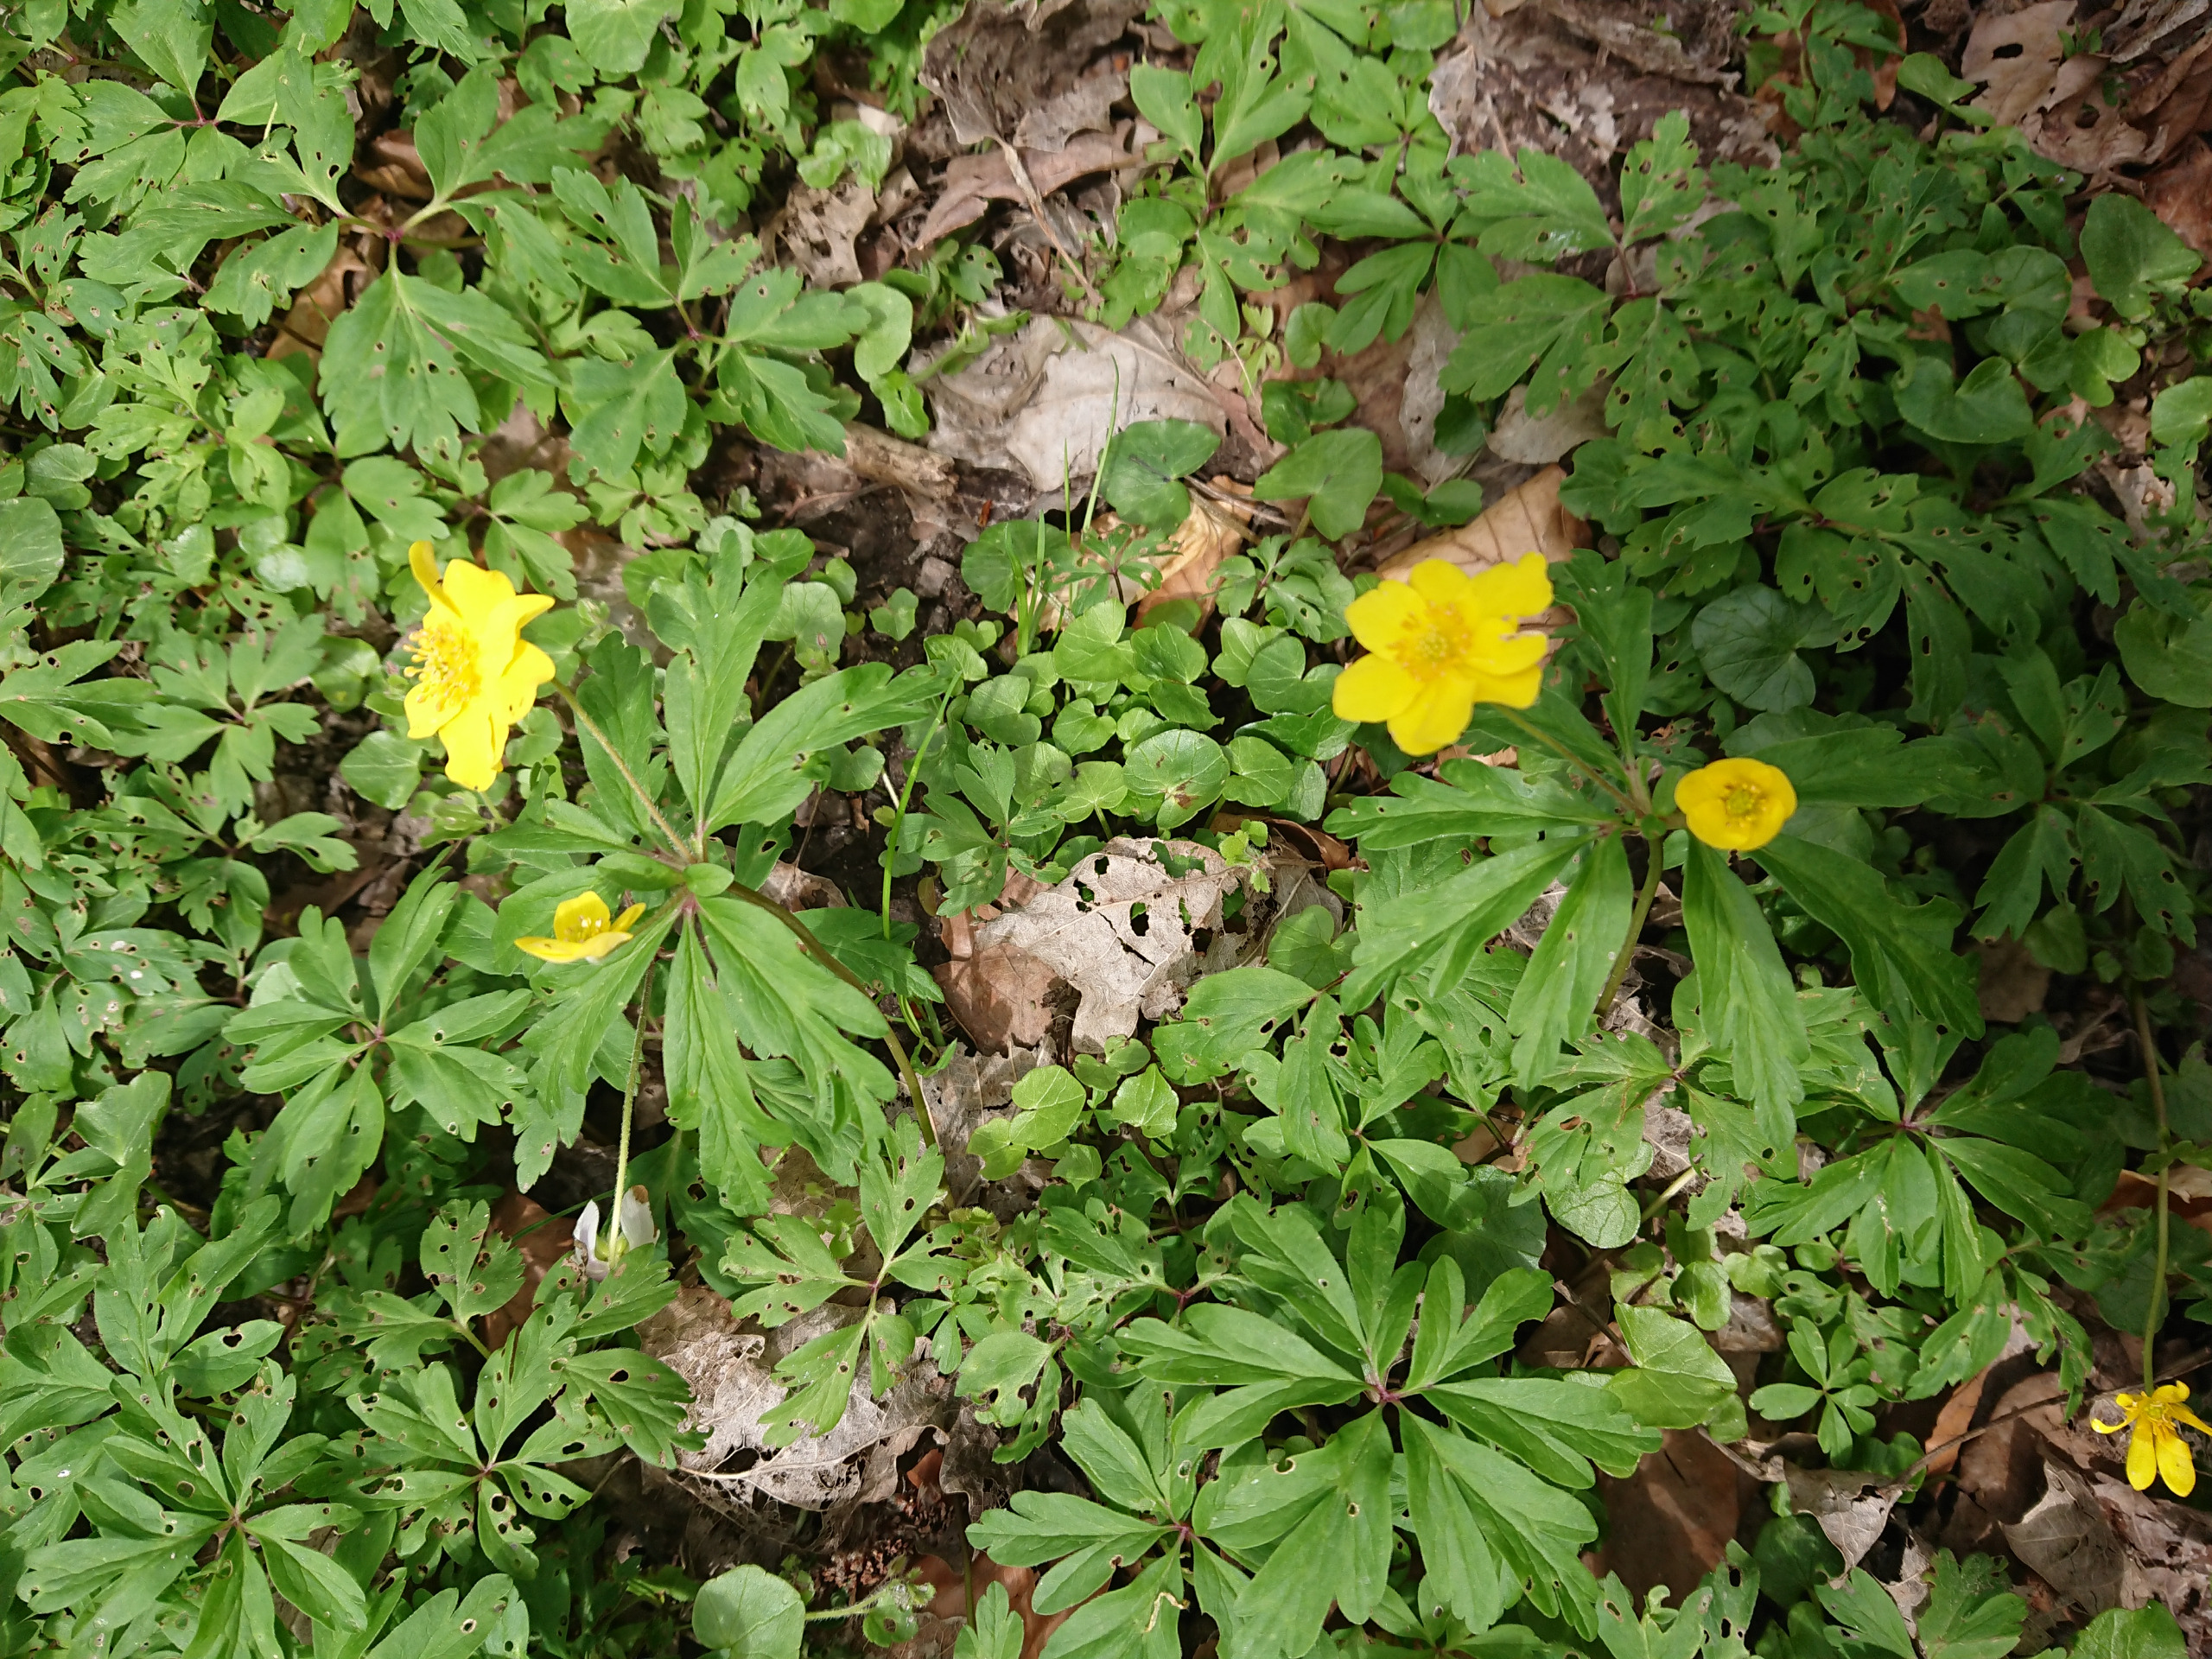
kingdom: Plantae
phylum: Tracheophyta
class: Magnoliopsida
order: Ranunculales
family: Ranunculaceae
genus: Anemone
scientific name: Anemone ranunculoides
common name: Gul anemone
